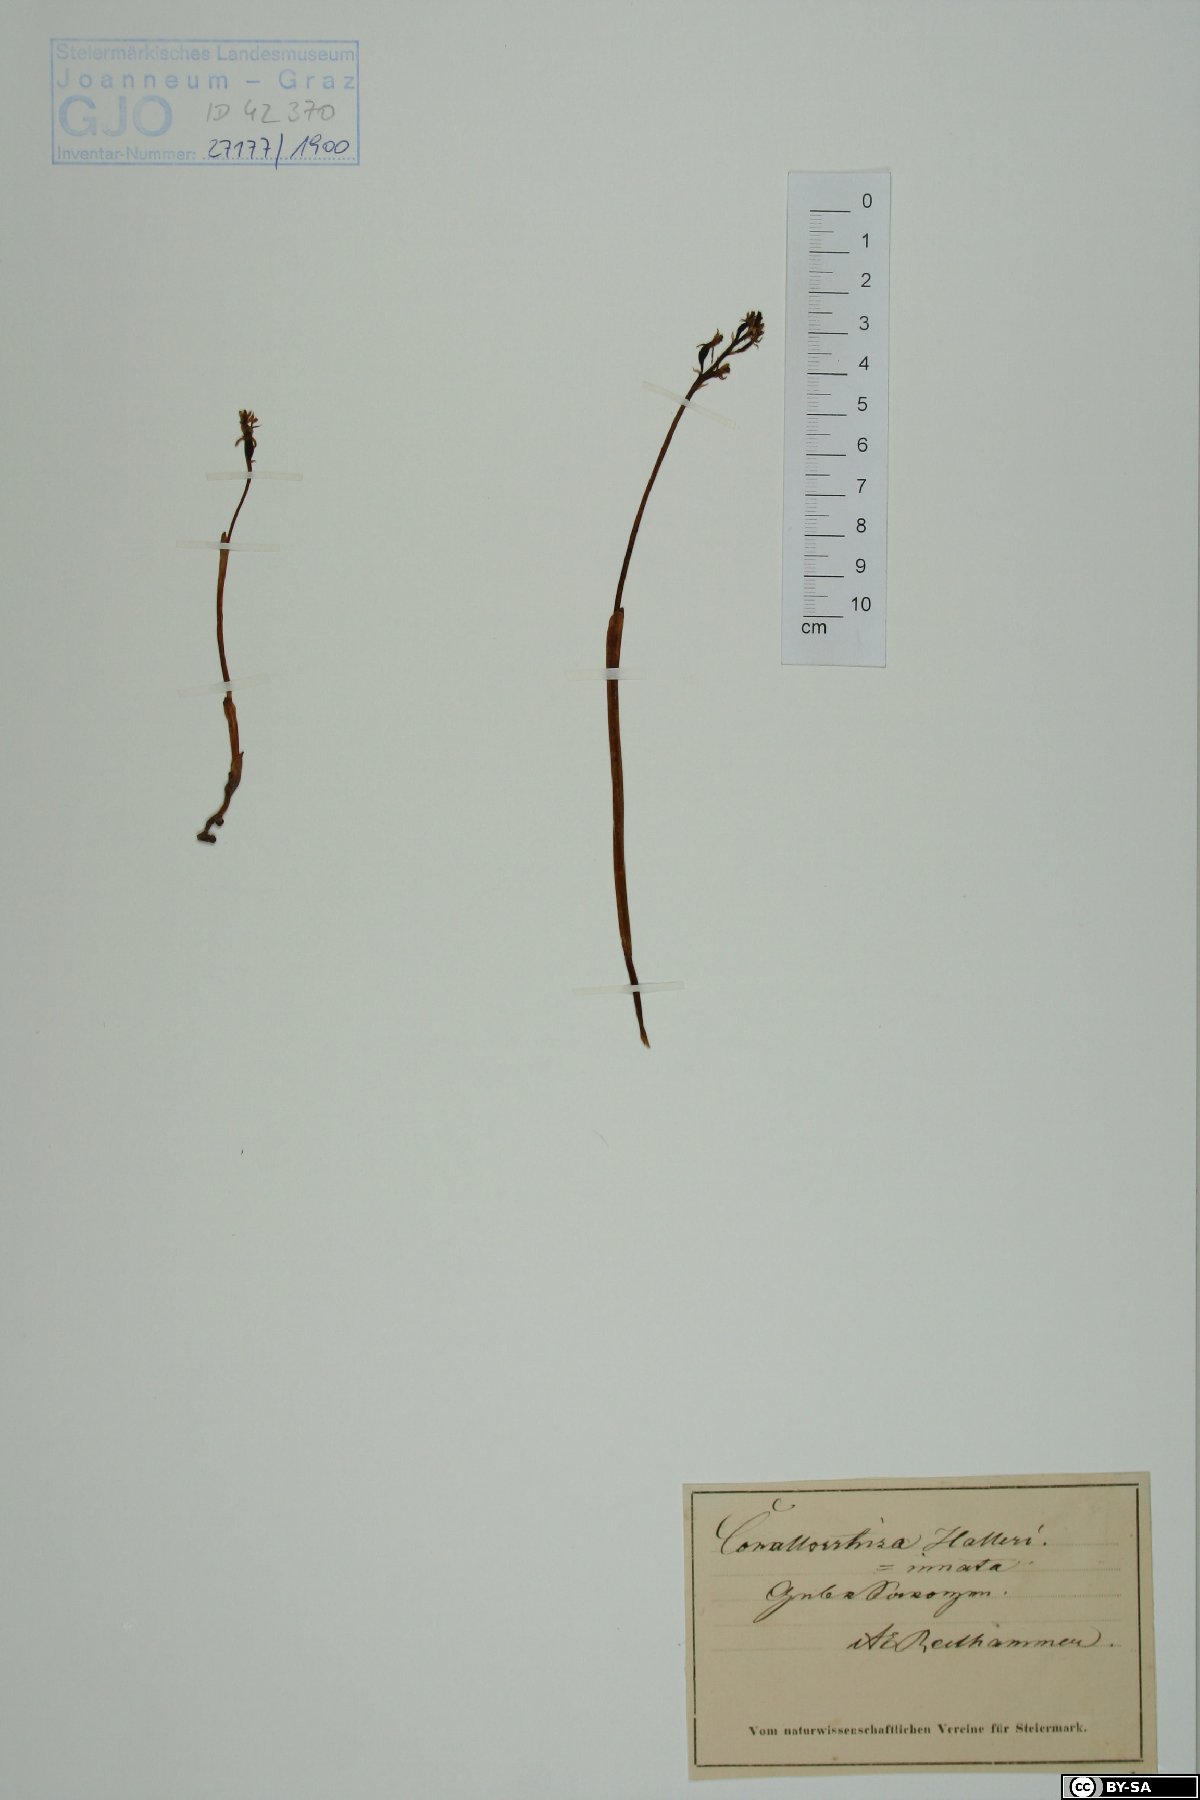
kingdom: Plantae
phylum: Tracheophyta
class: Liliopsida
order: Asparagales
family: Orchidaceae
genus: Corallorhiza
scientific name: Corallorhiza trifida
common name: Yellow coralroot
